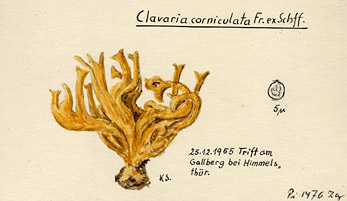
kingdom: Fungi
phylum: Basidiomycota
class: Agaricomycetes
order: Agaricales
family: Clavariaceae
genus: Clavulinopsis
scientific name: Clavulinopsis corniculata
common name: Meadow coral
